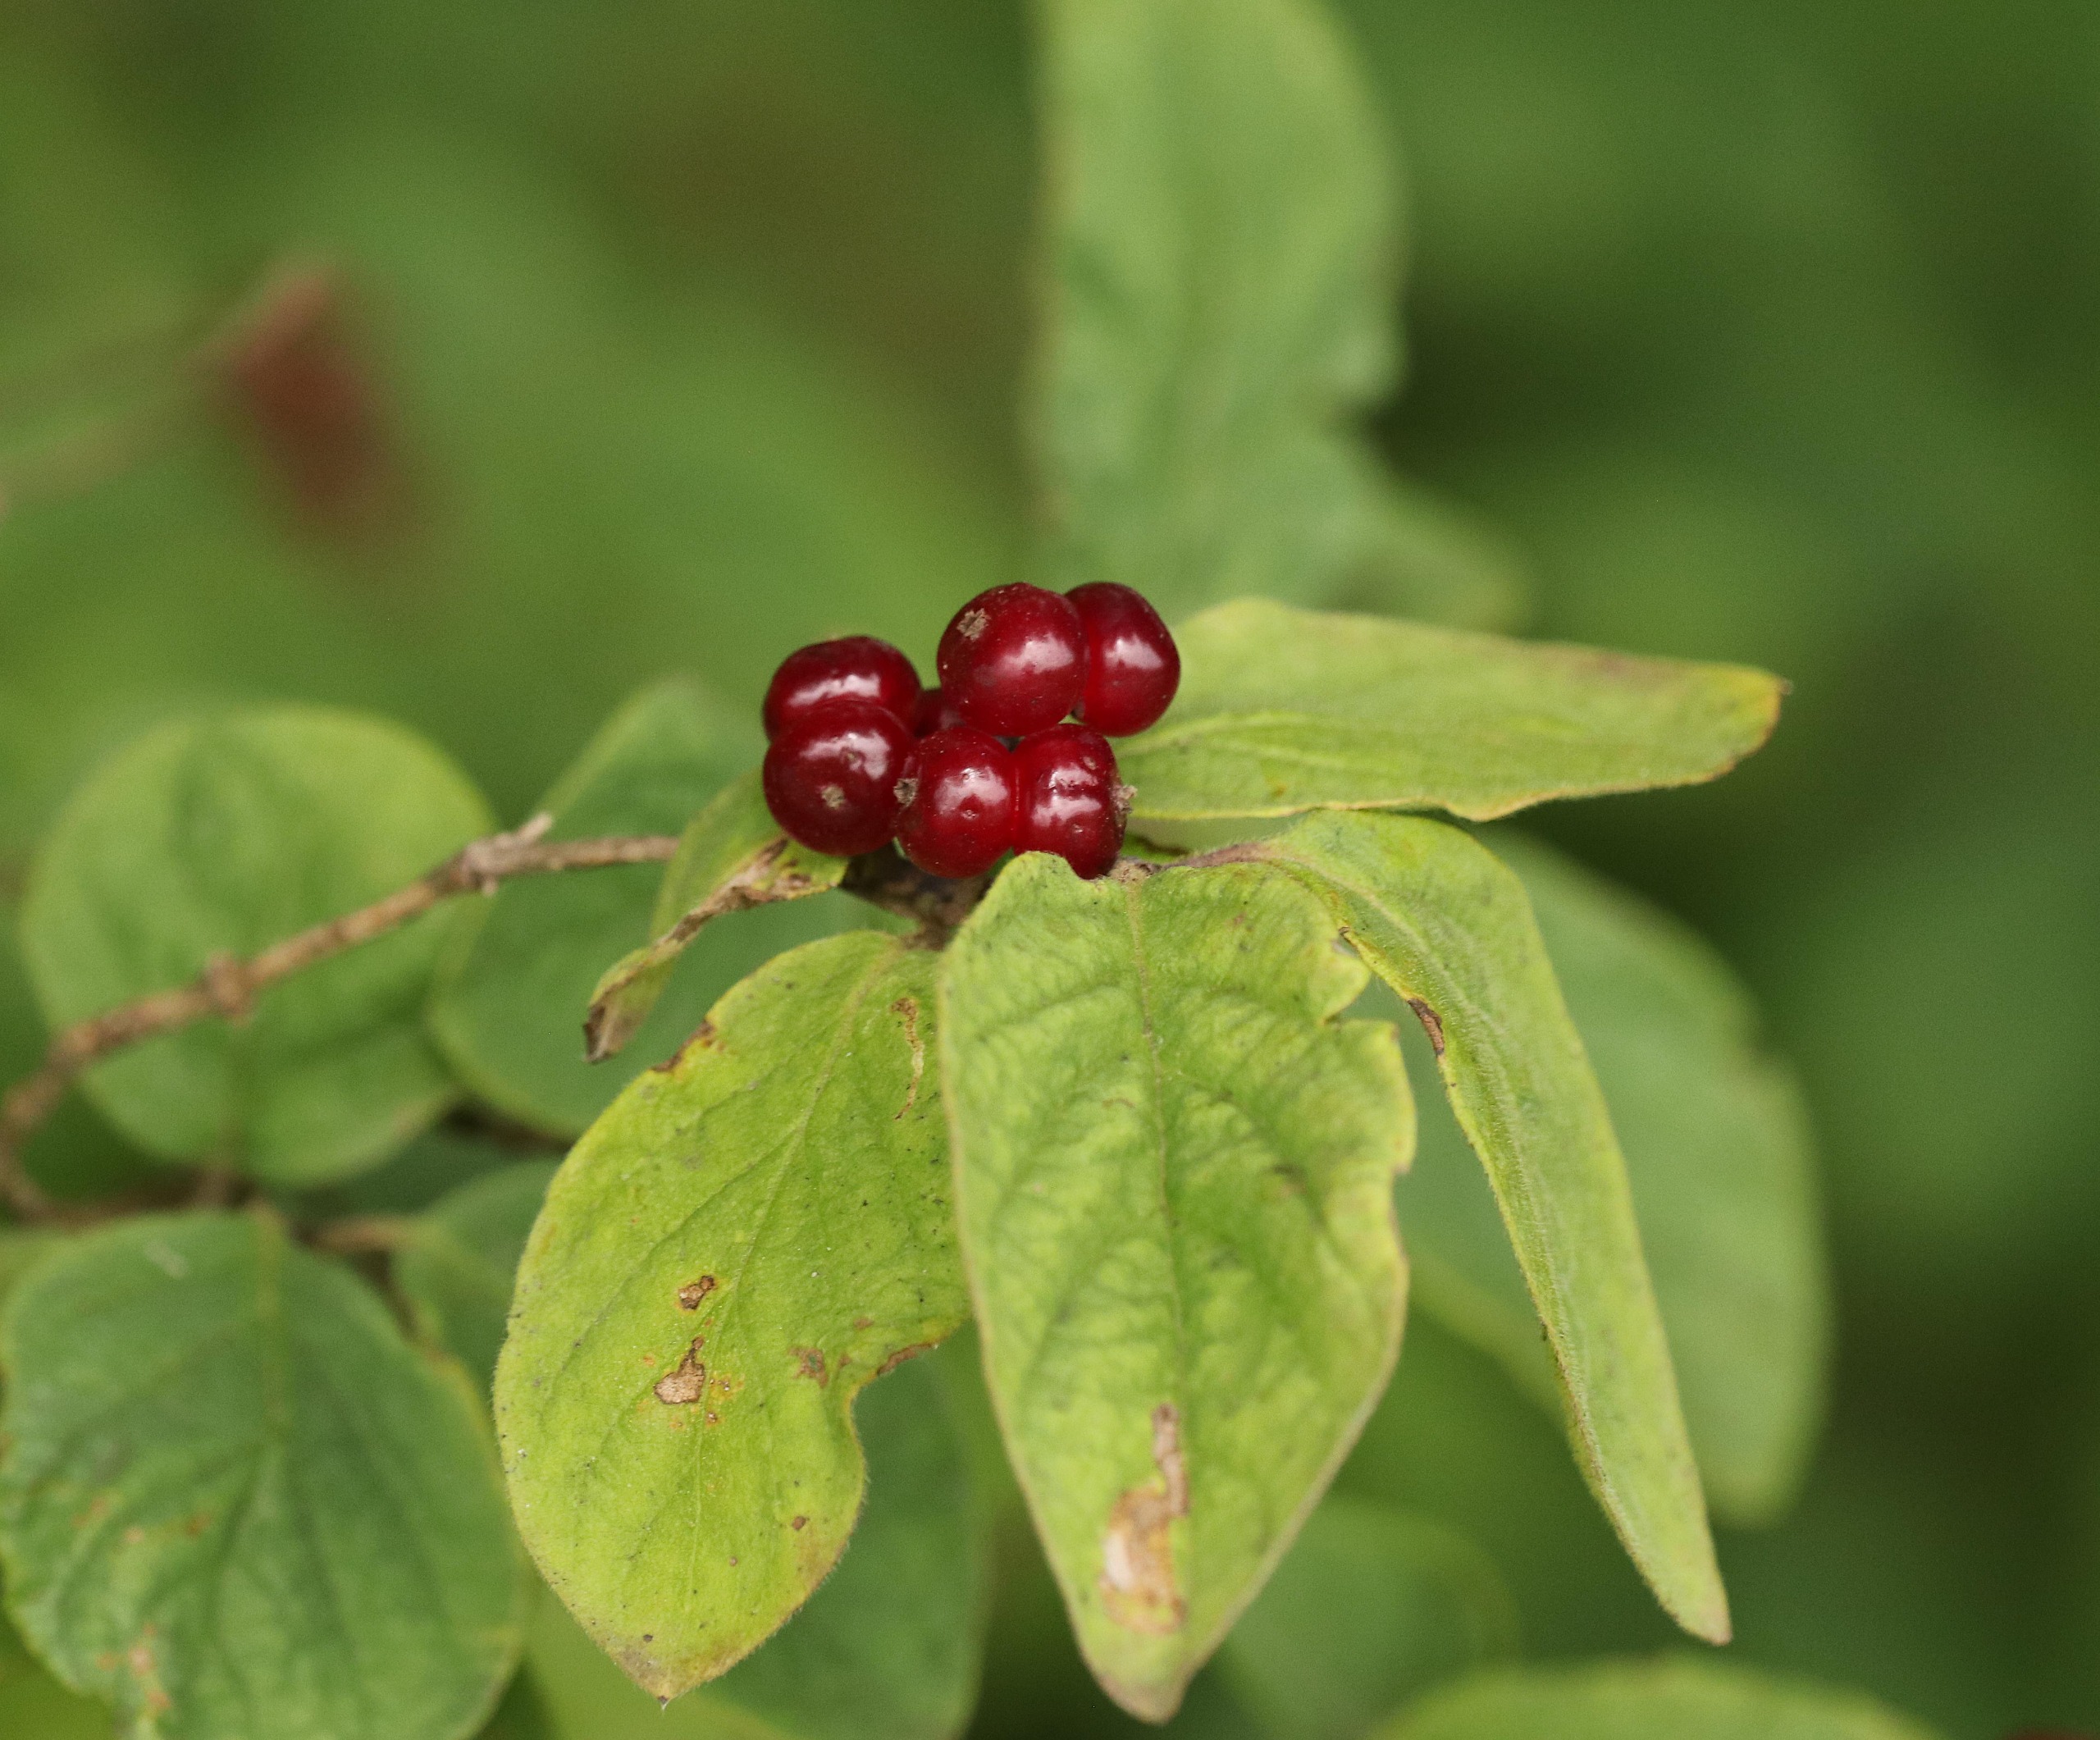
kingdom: Plantae
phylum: Tracheophyta
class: Magnoliopsida
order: Dipsacales
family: Caprifoliaceae
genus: Lonicera
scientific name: Lonicera xylosteum
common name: Dunet gedeblad
